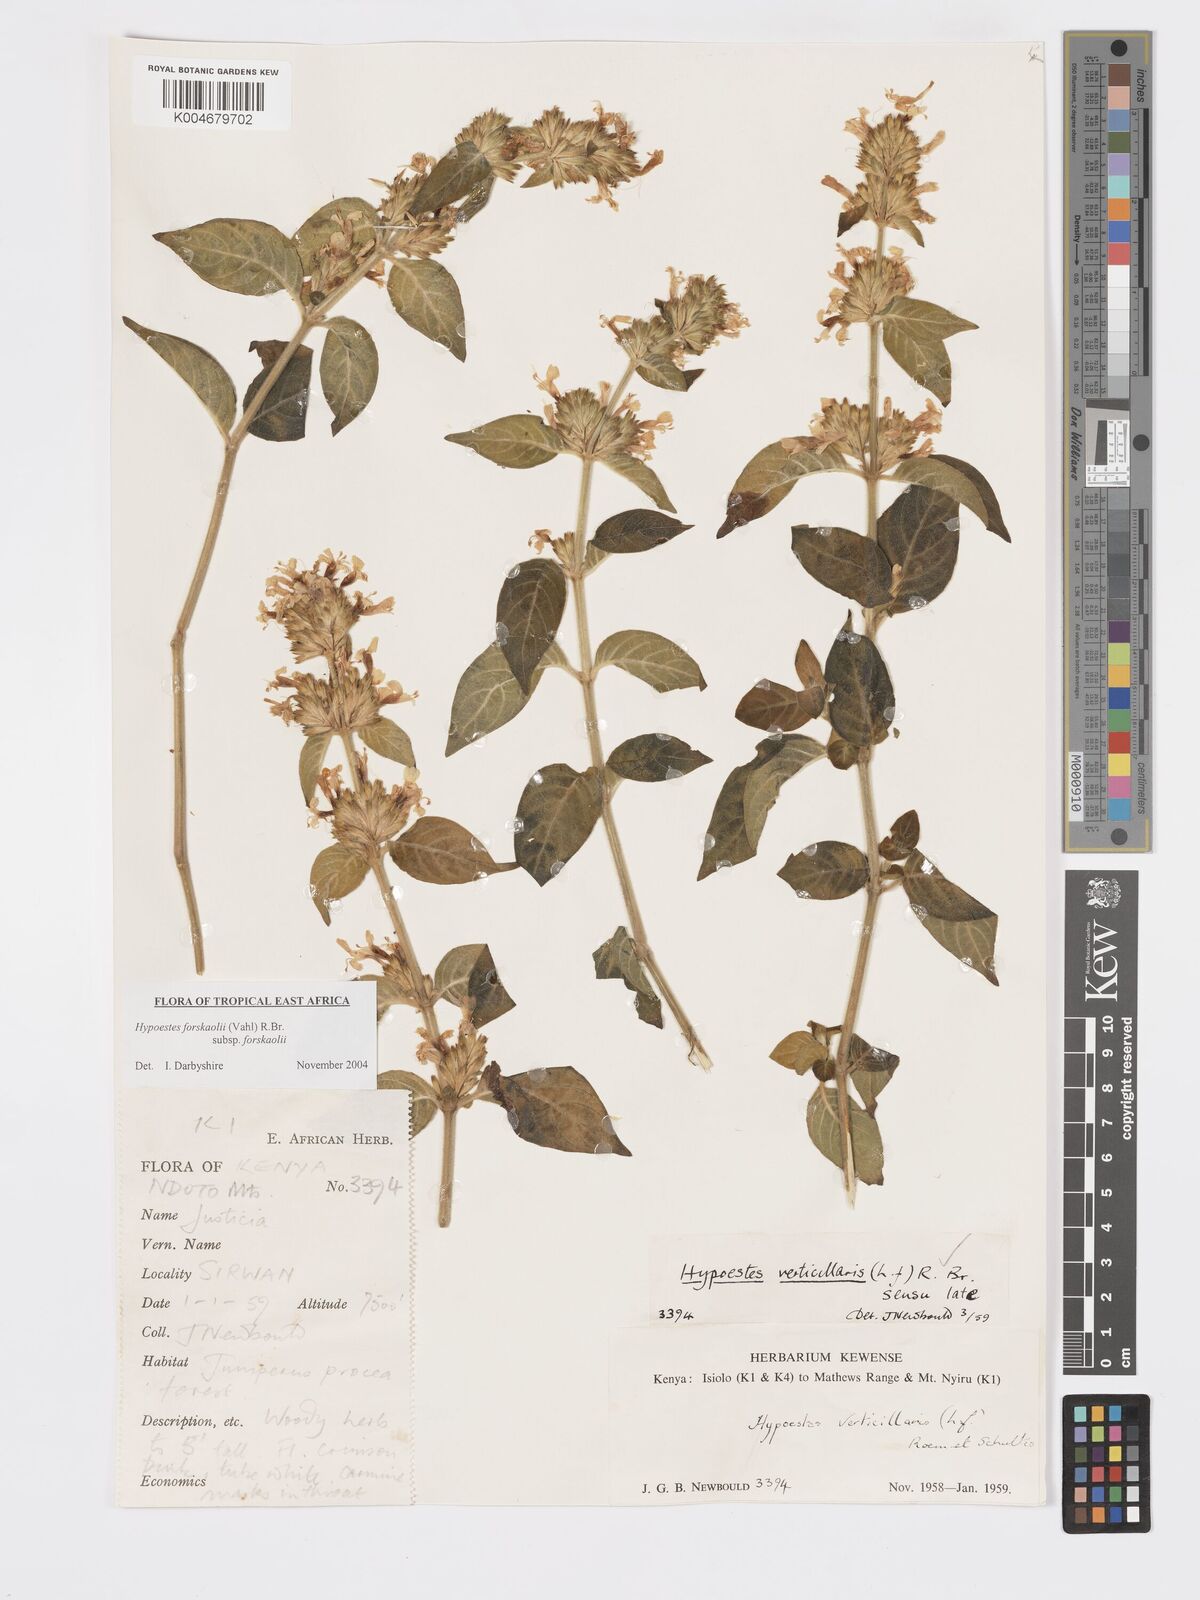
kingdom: Plantae
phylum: Tracheophyta
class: Magnoliopsida
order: Lamiales
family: Acanthaceae
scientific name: Acanthaceae
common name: Acanthaceae
